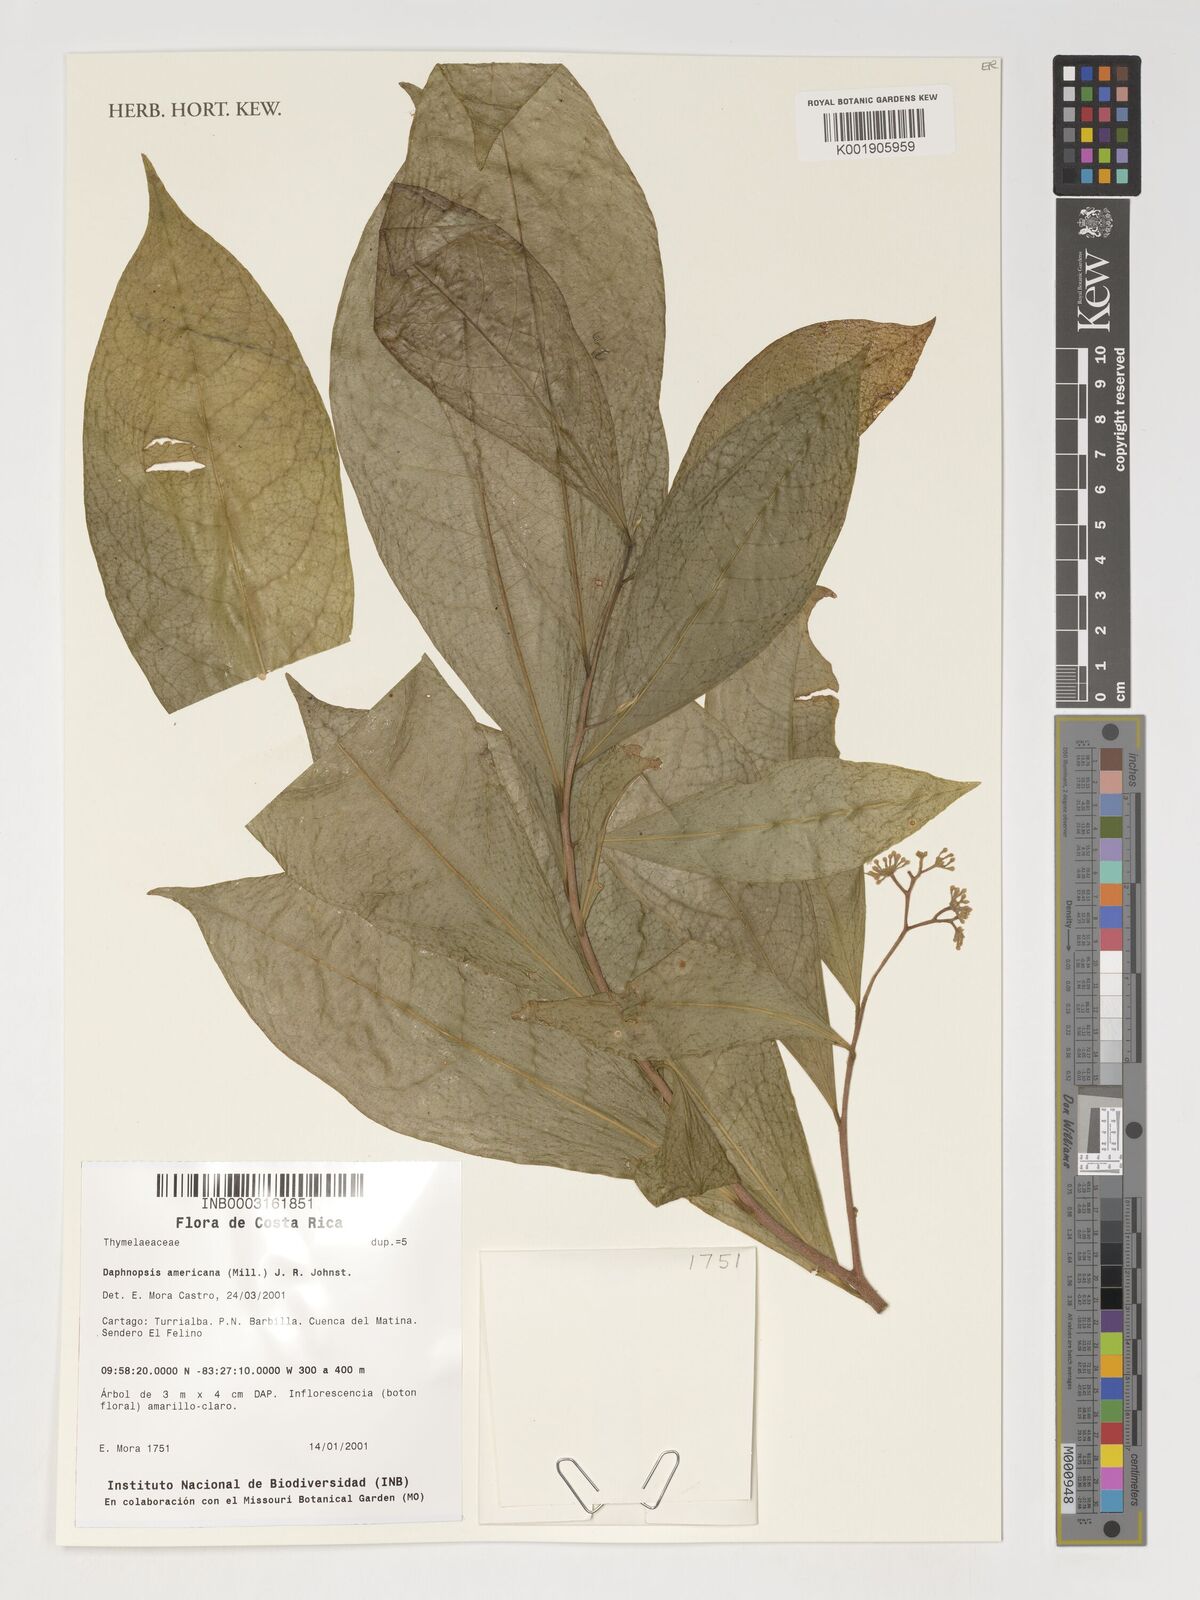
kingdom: Plantae
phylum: Tracheophyta
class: Magnoliopsida
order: Malvales
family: Thymelaeaceae
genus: Daphnopsis
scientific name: Daphnopsis americana
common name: Maho
